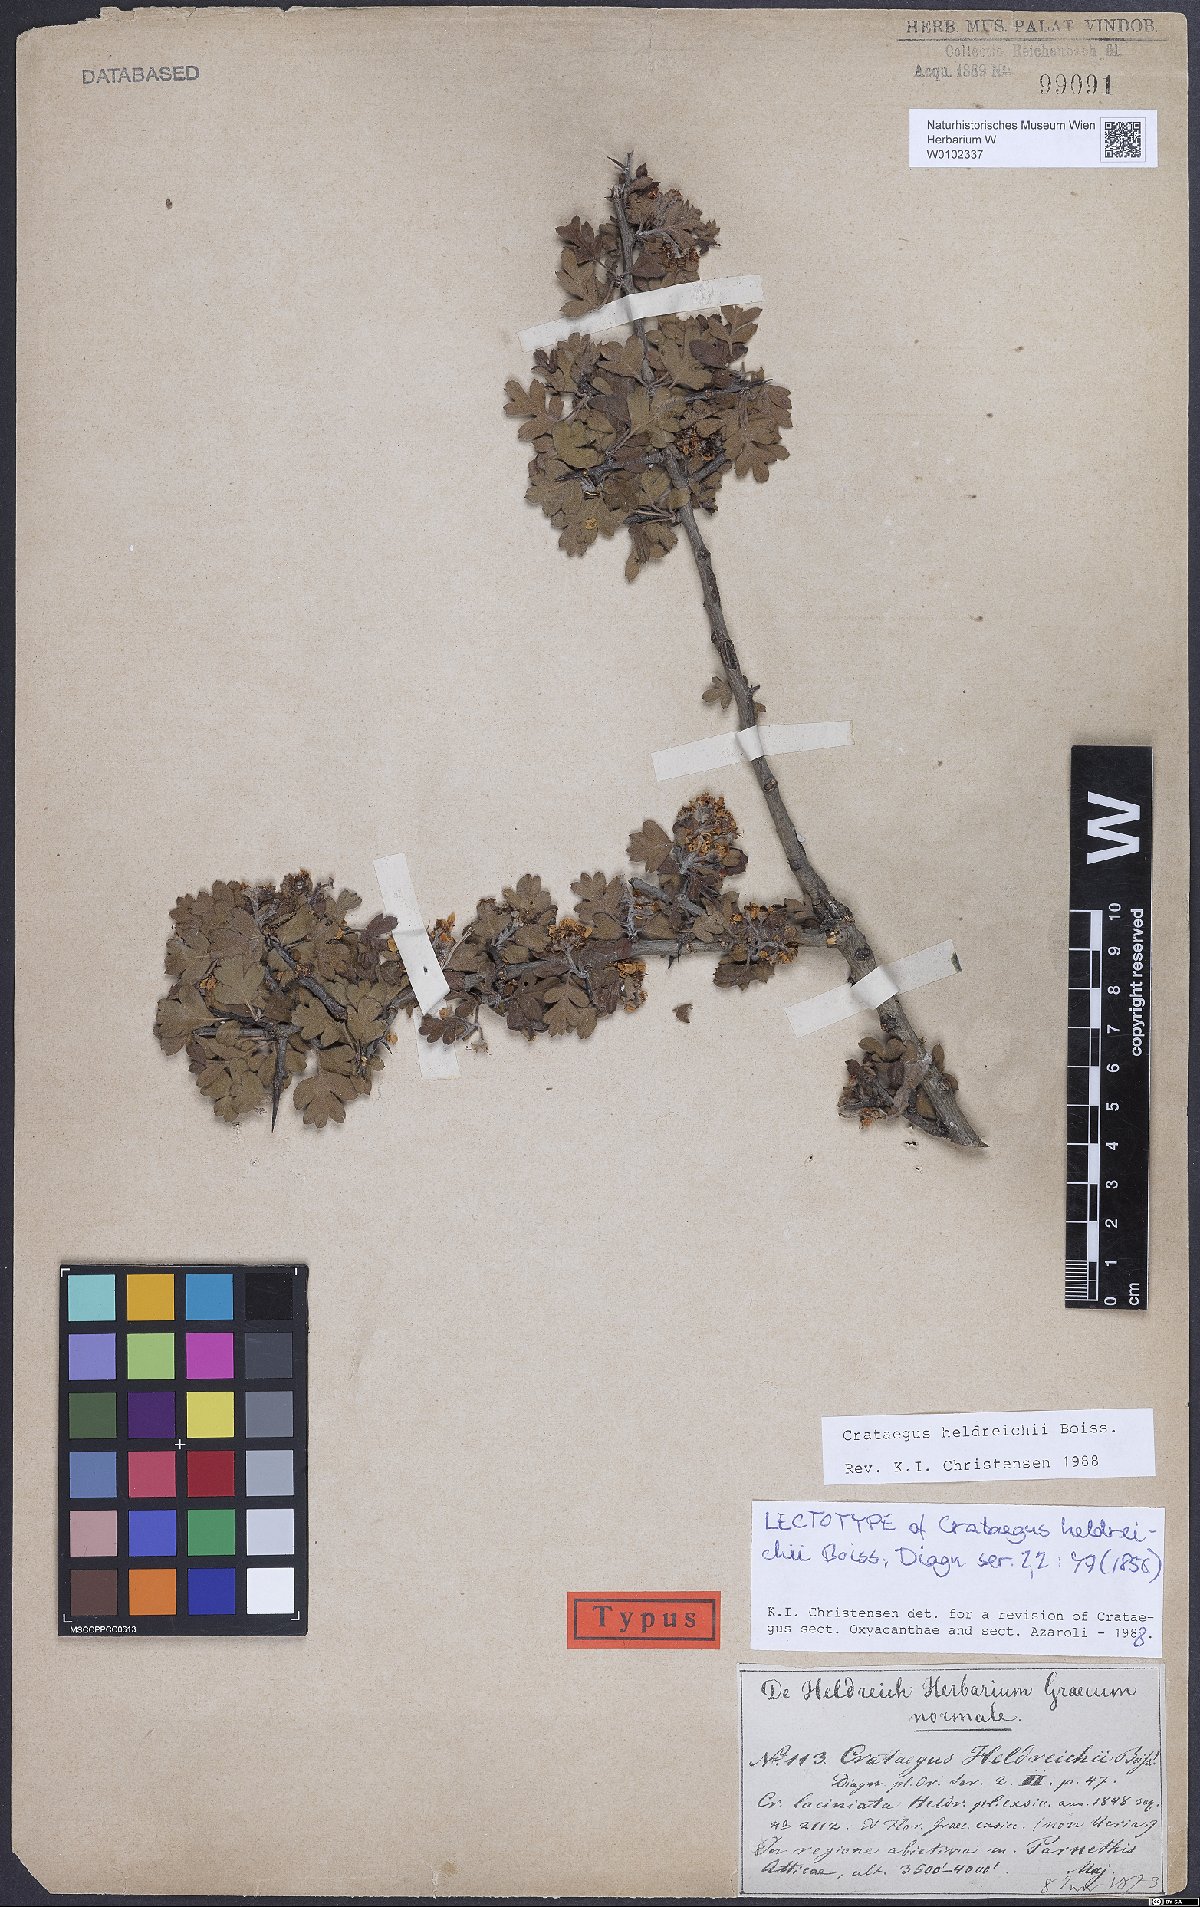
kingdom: Plantae
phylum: Tracheophyta
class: Magnoliopsida
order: Rosales
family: Rosaceae
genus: Crataegus
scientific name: Crataegus heldreichii
